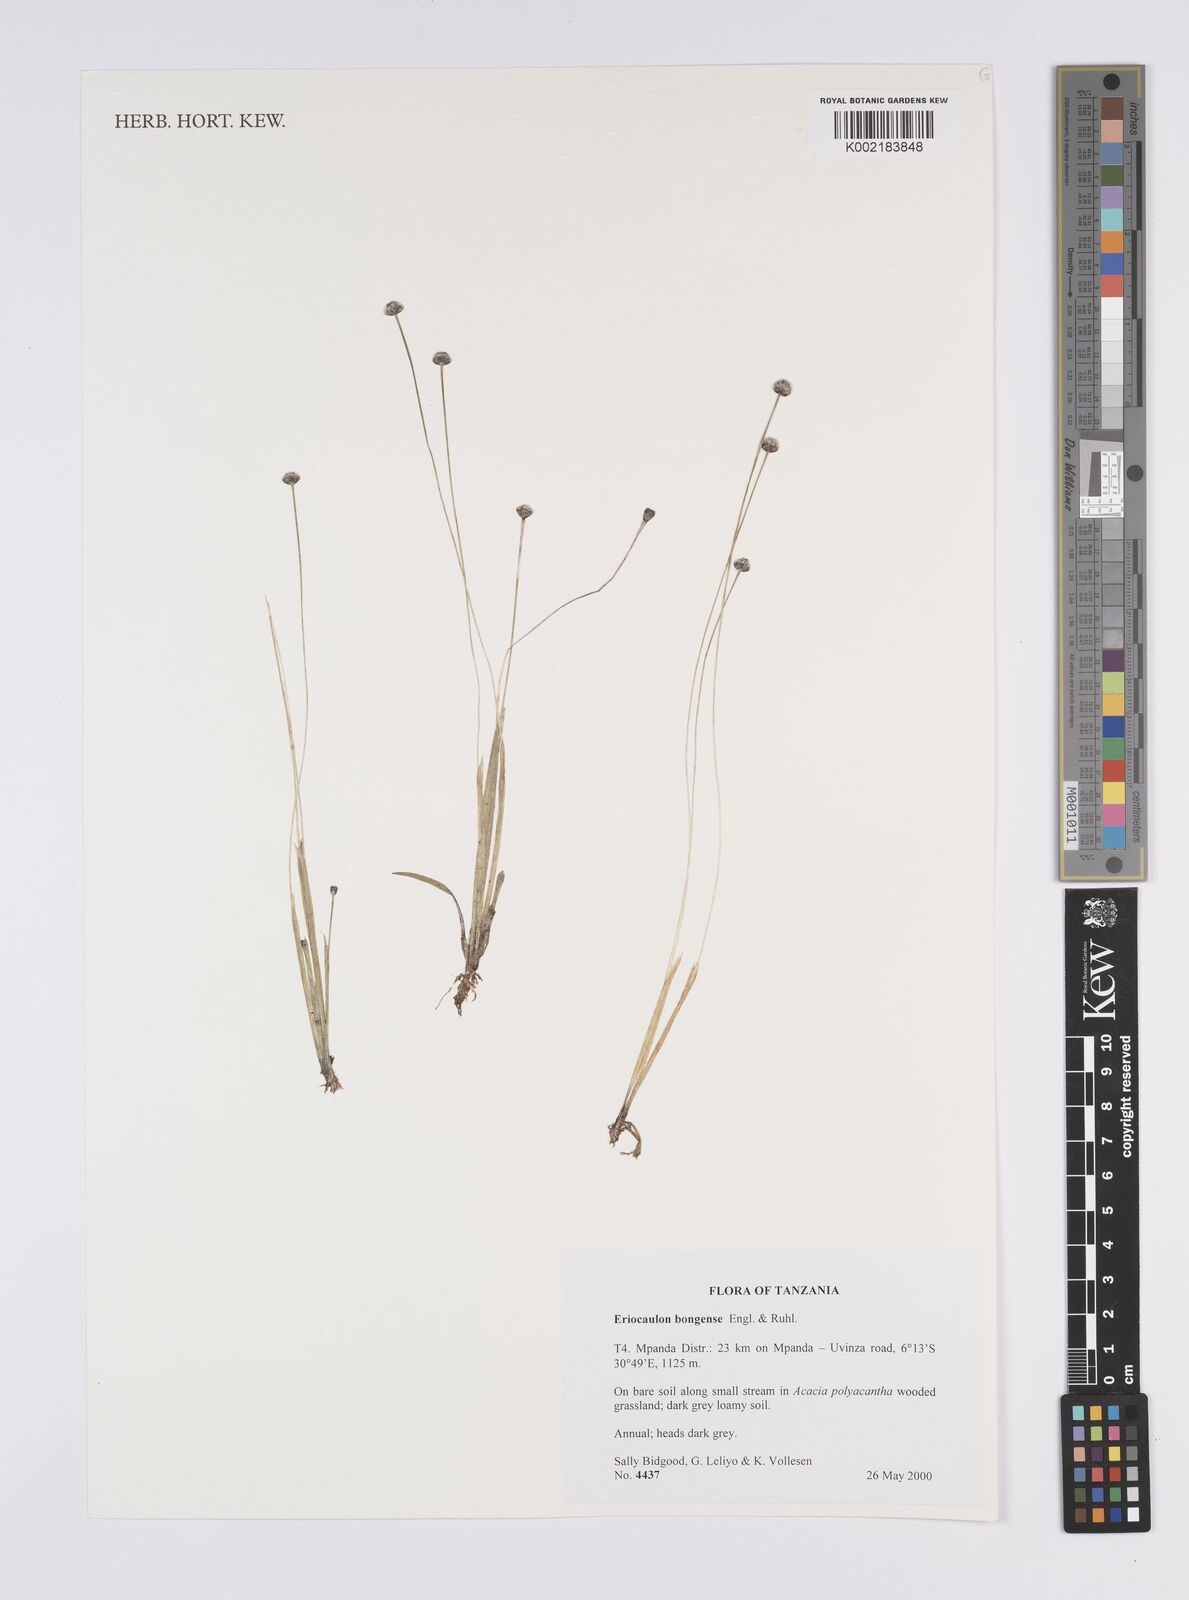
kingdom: Plantae
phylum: Tracheophyta
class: Liliopsida
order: Poales
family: Eriocaulaceae
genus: Eriocaulon
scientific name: Eriocaulon bongense
